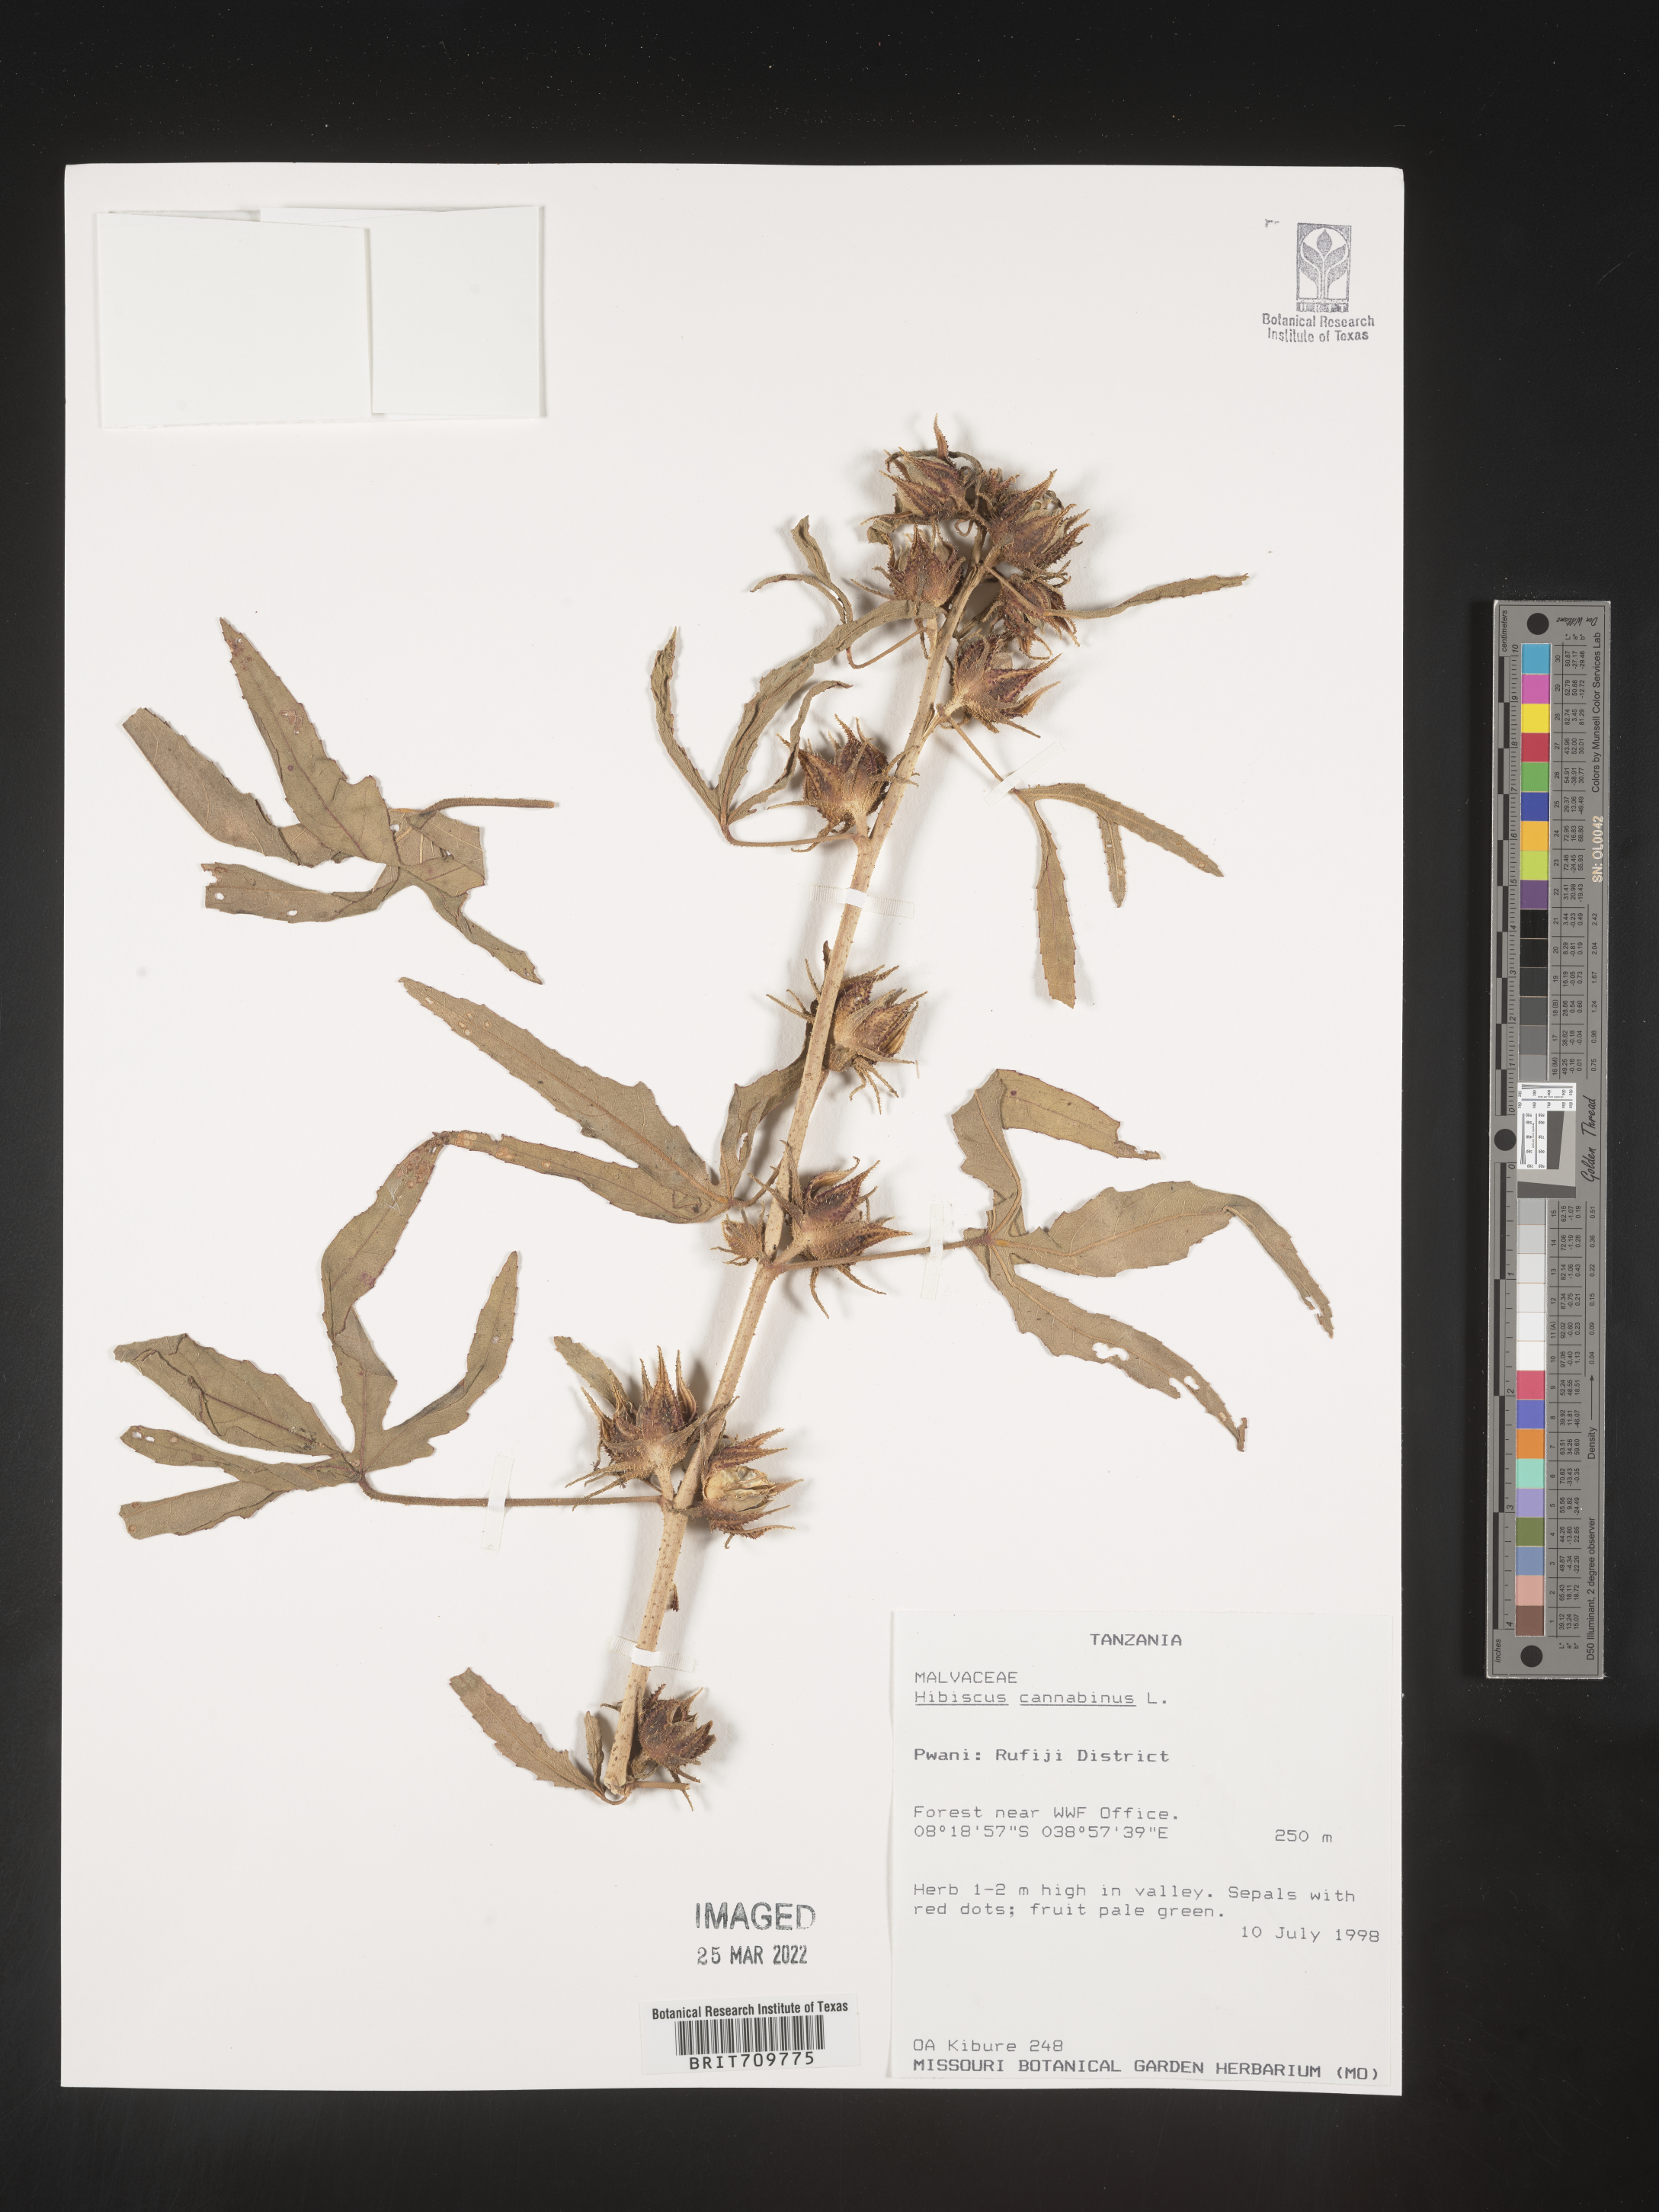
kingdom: Plantae
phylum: Tracheophyta
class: Magnoliopsida
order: Malvales
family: Malvaceae
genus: Hibiscus
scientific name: Hibiscus
